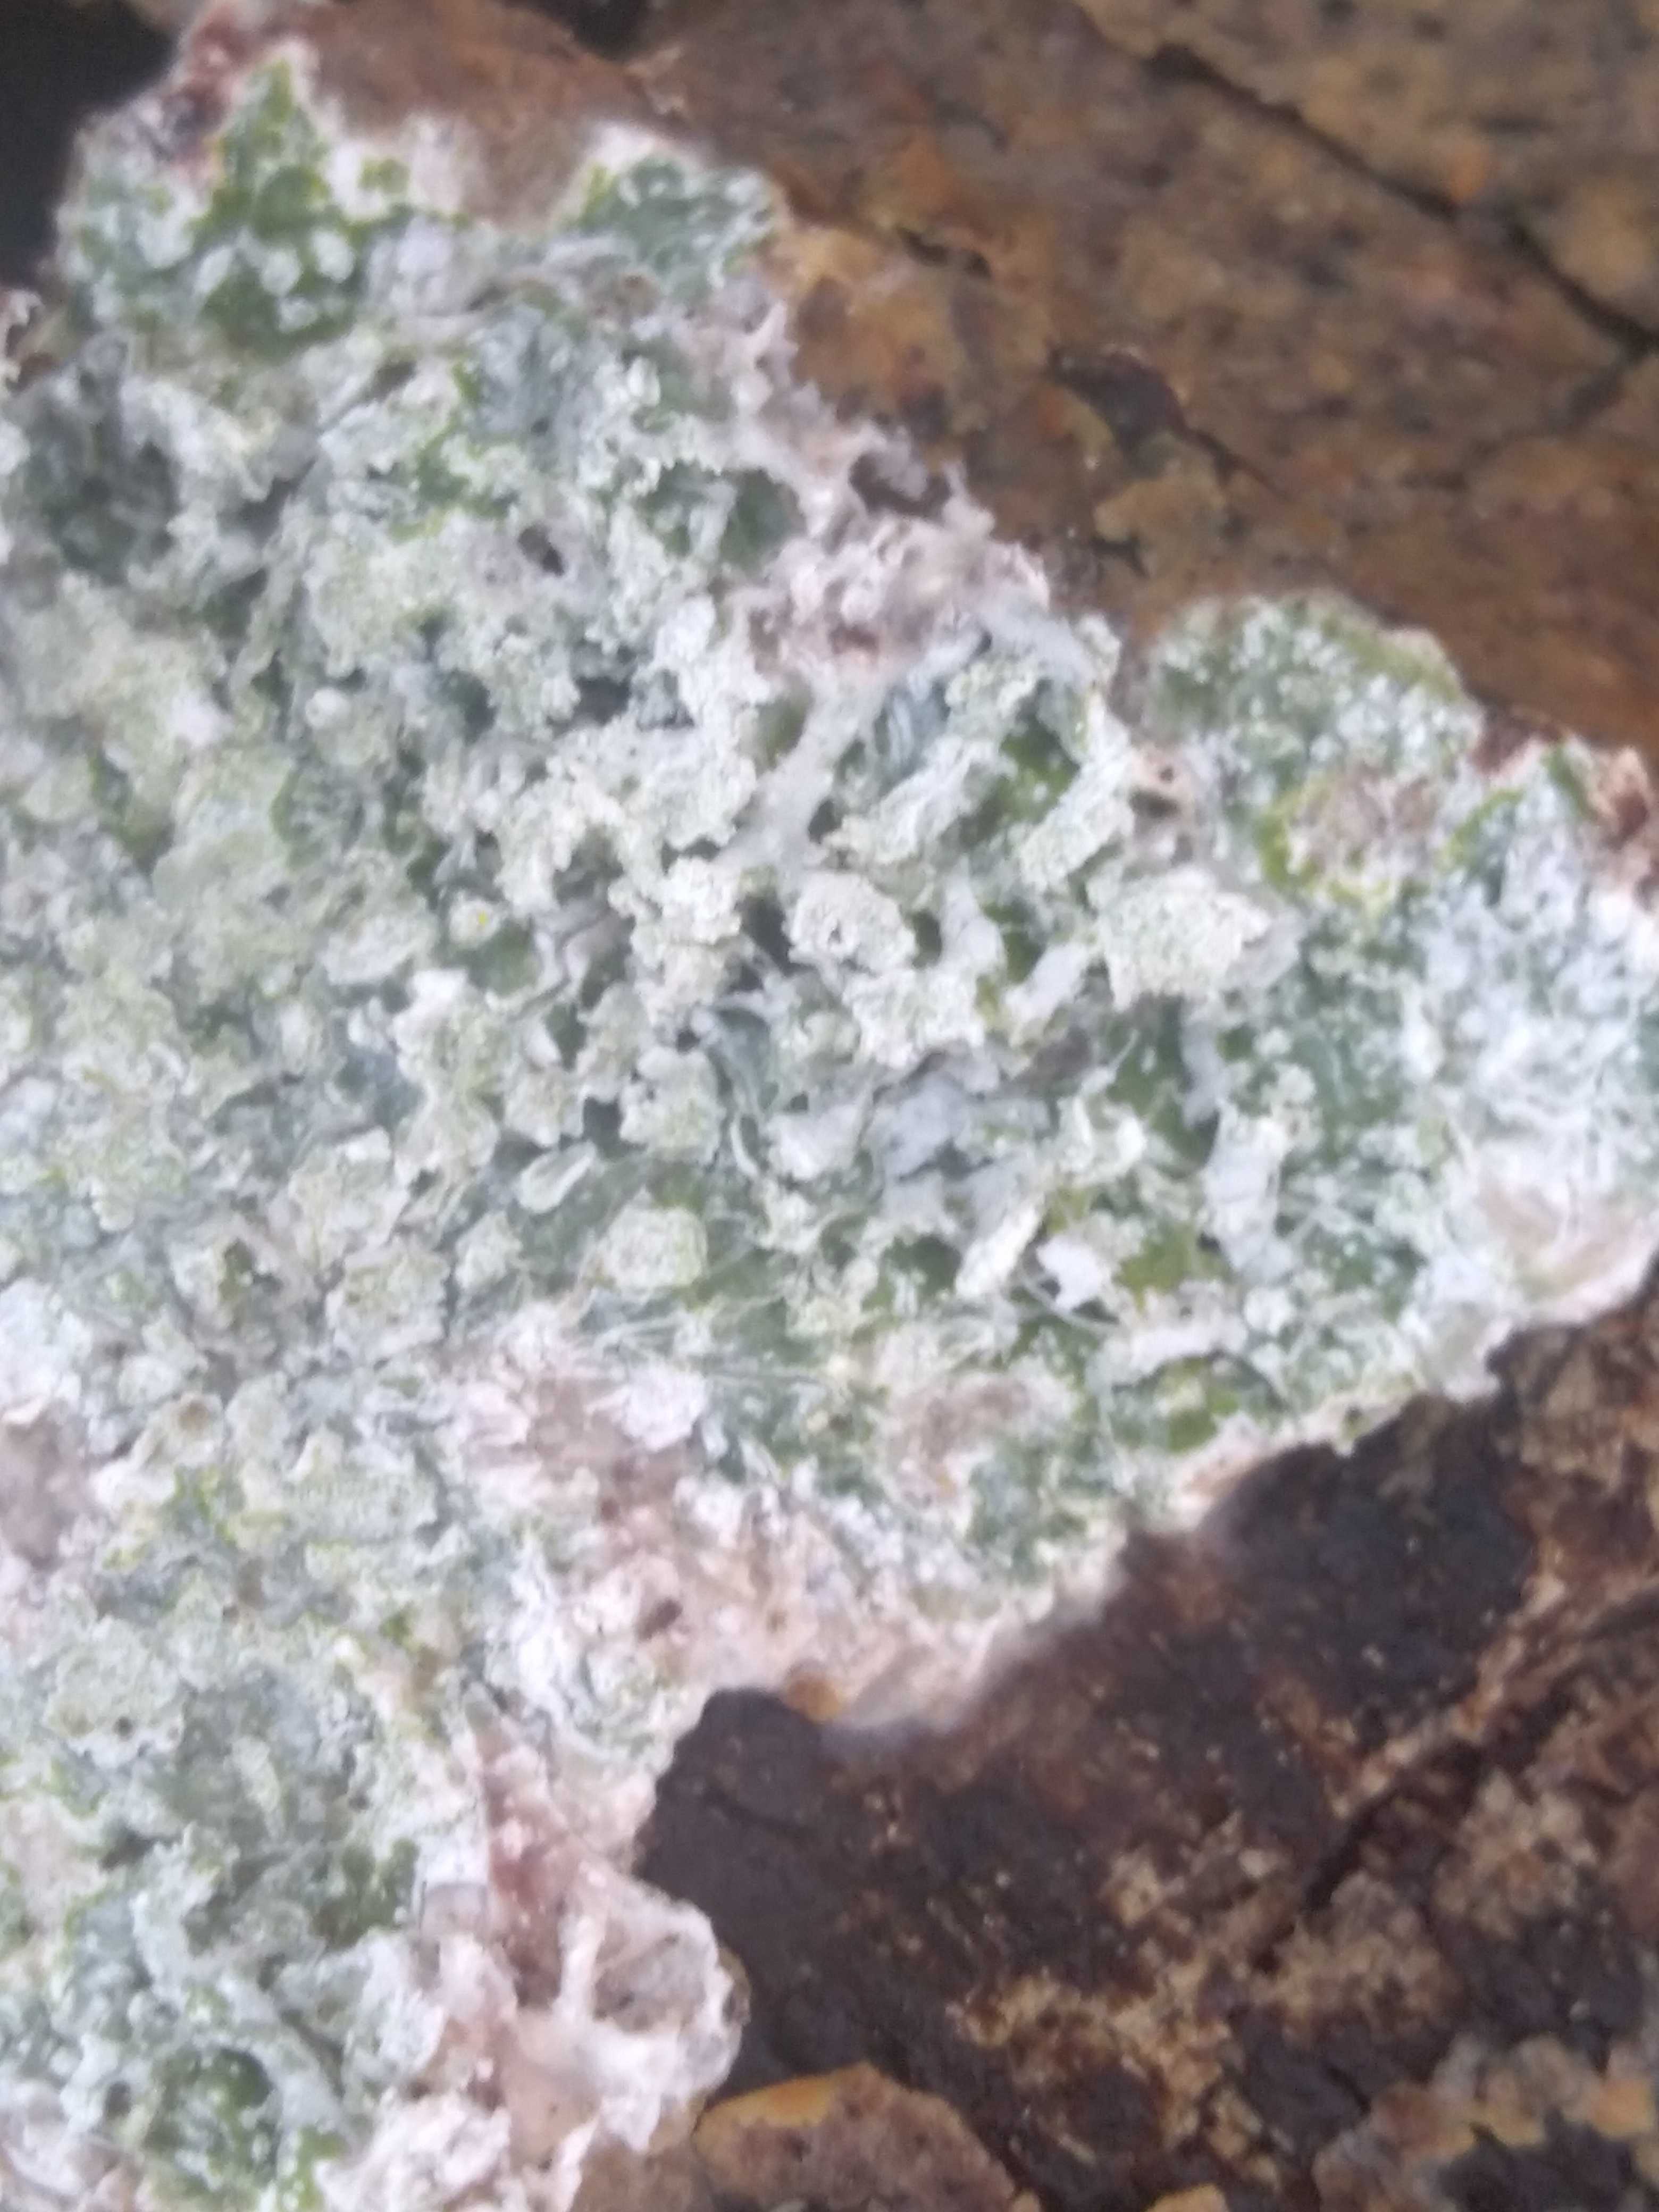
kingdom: Fungi
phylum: Ascomycota
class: Lecanoromycetes
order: Lecanorales
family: Lecanoraceae
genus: Lecanora
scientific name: Lecanora chlarotera
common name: brun kantskivelav
